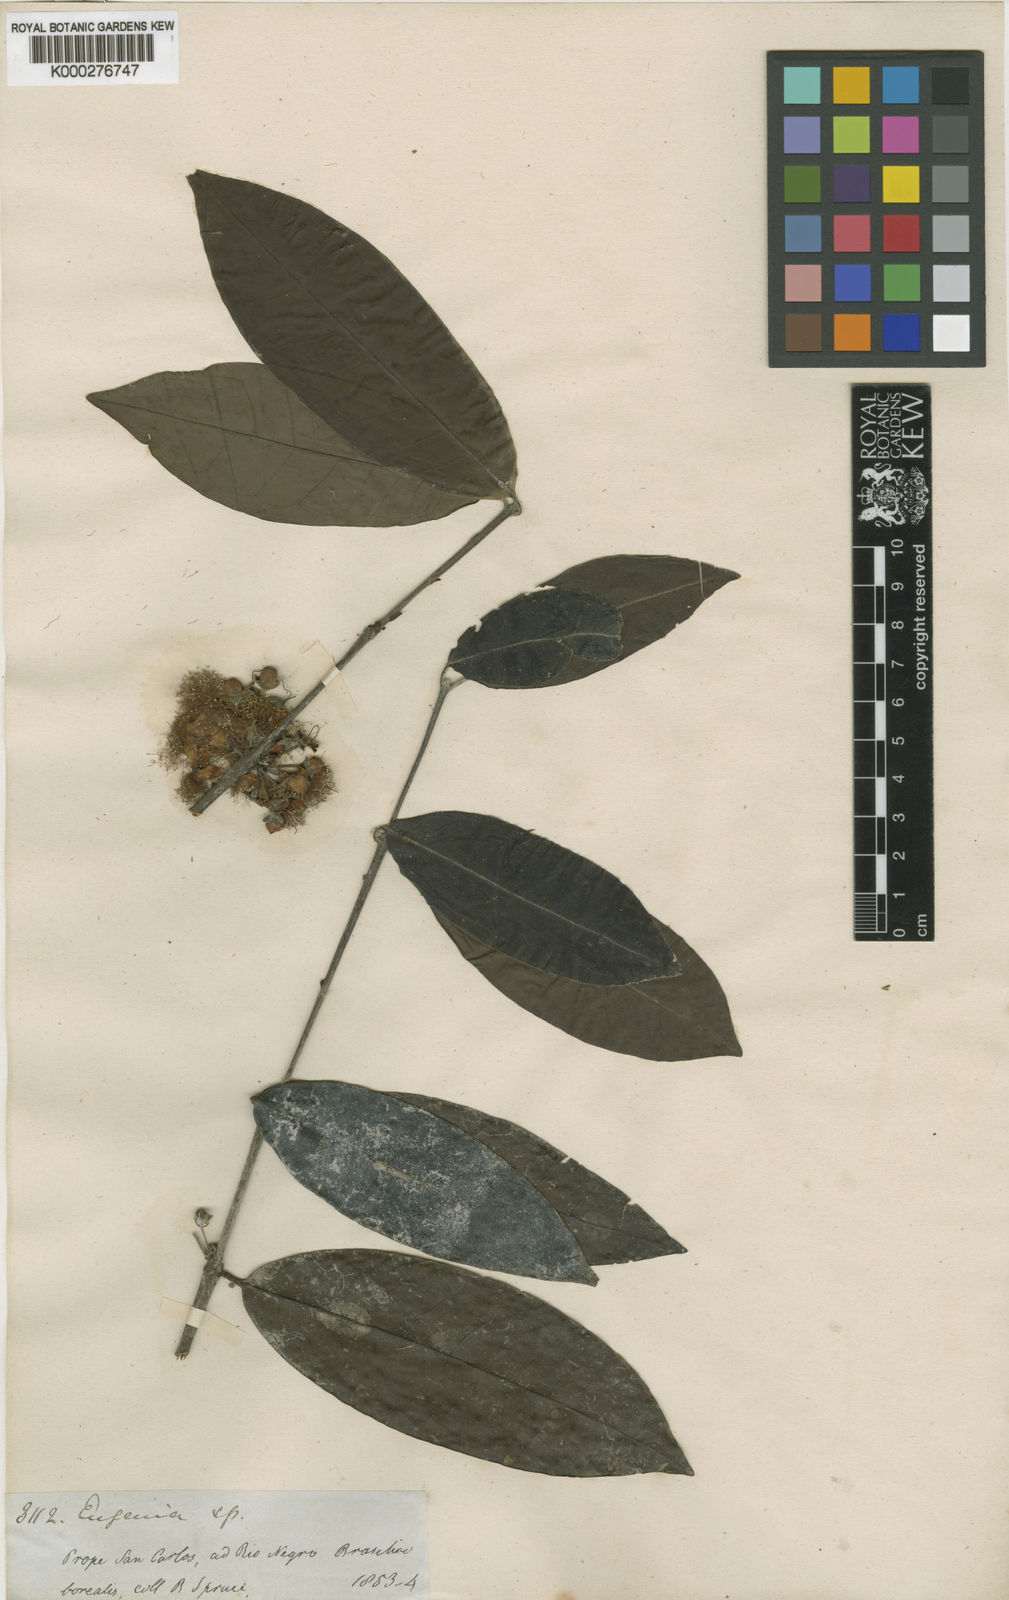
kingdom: Plantae
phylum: Tracheophyta
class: Magnoliopsida
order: Myrtales
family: Myrtaceae
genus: Eugenia
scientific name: Eugenia gomesiana
